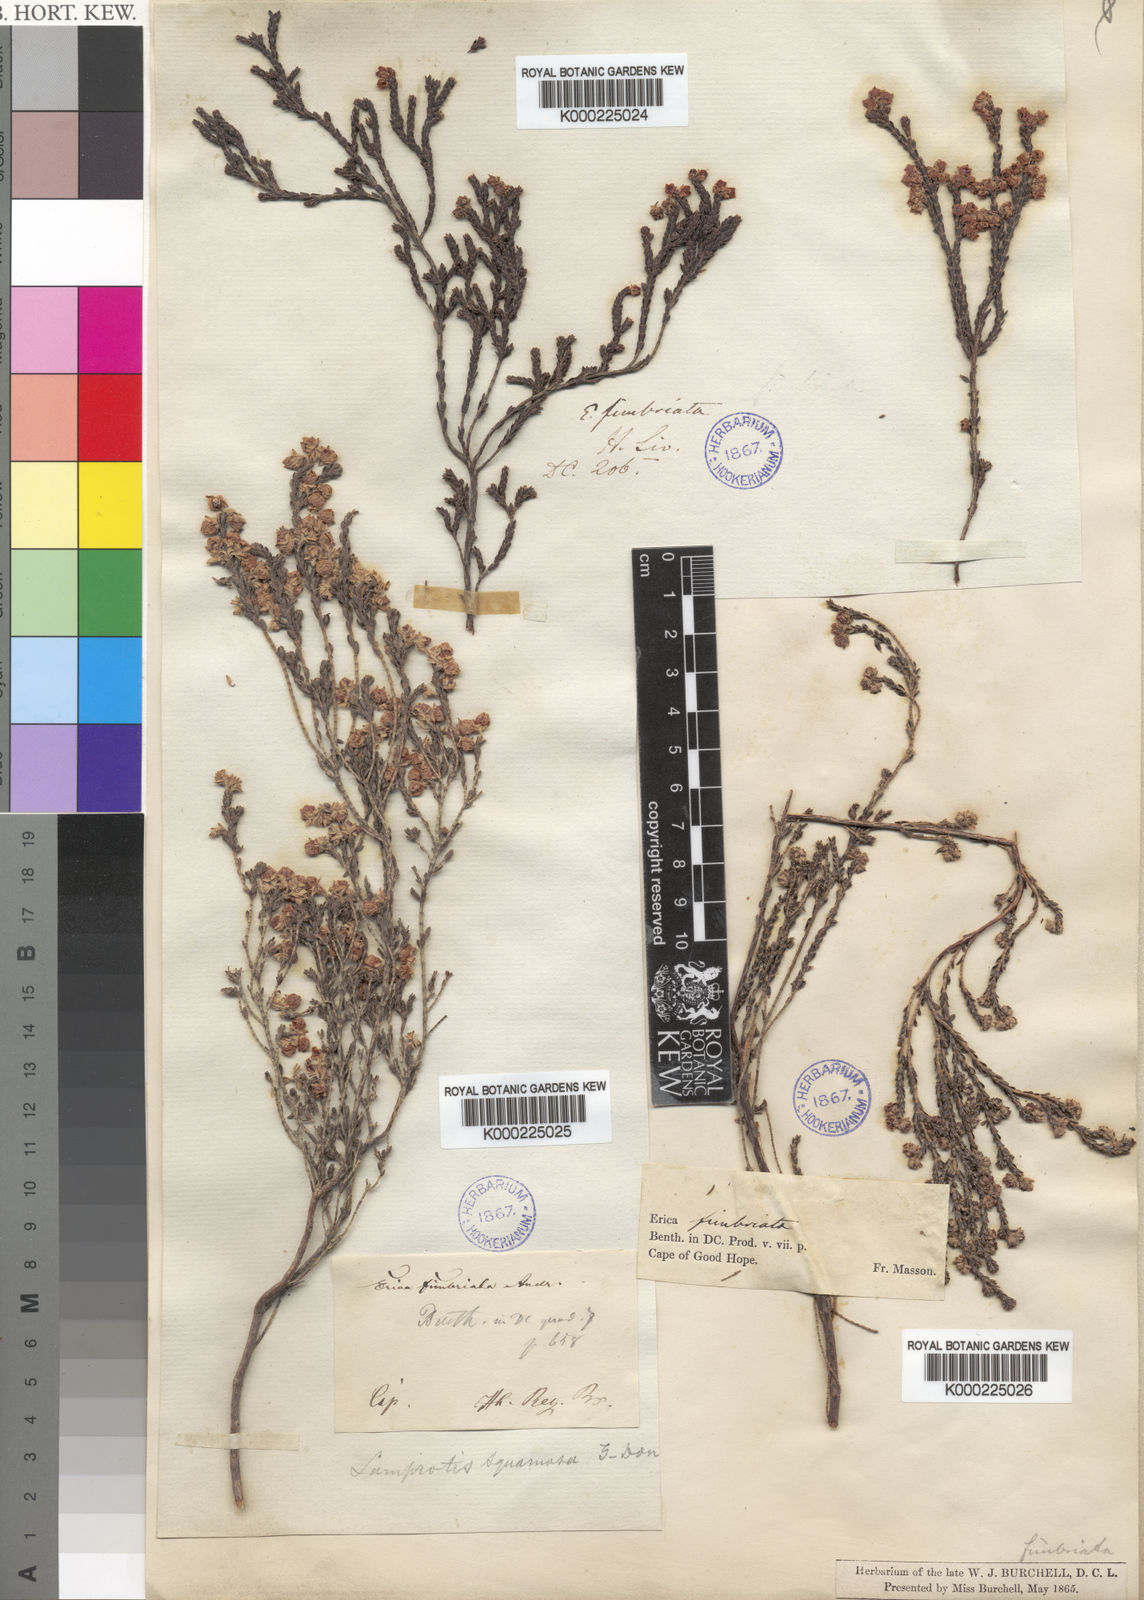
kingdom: Plantae
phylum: Tracheophyta
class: Magnoliopsida
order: Ericales
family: Ericaceae
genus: Erica
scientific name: Erica fimbriata
